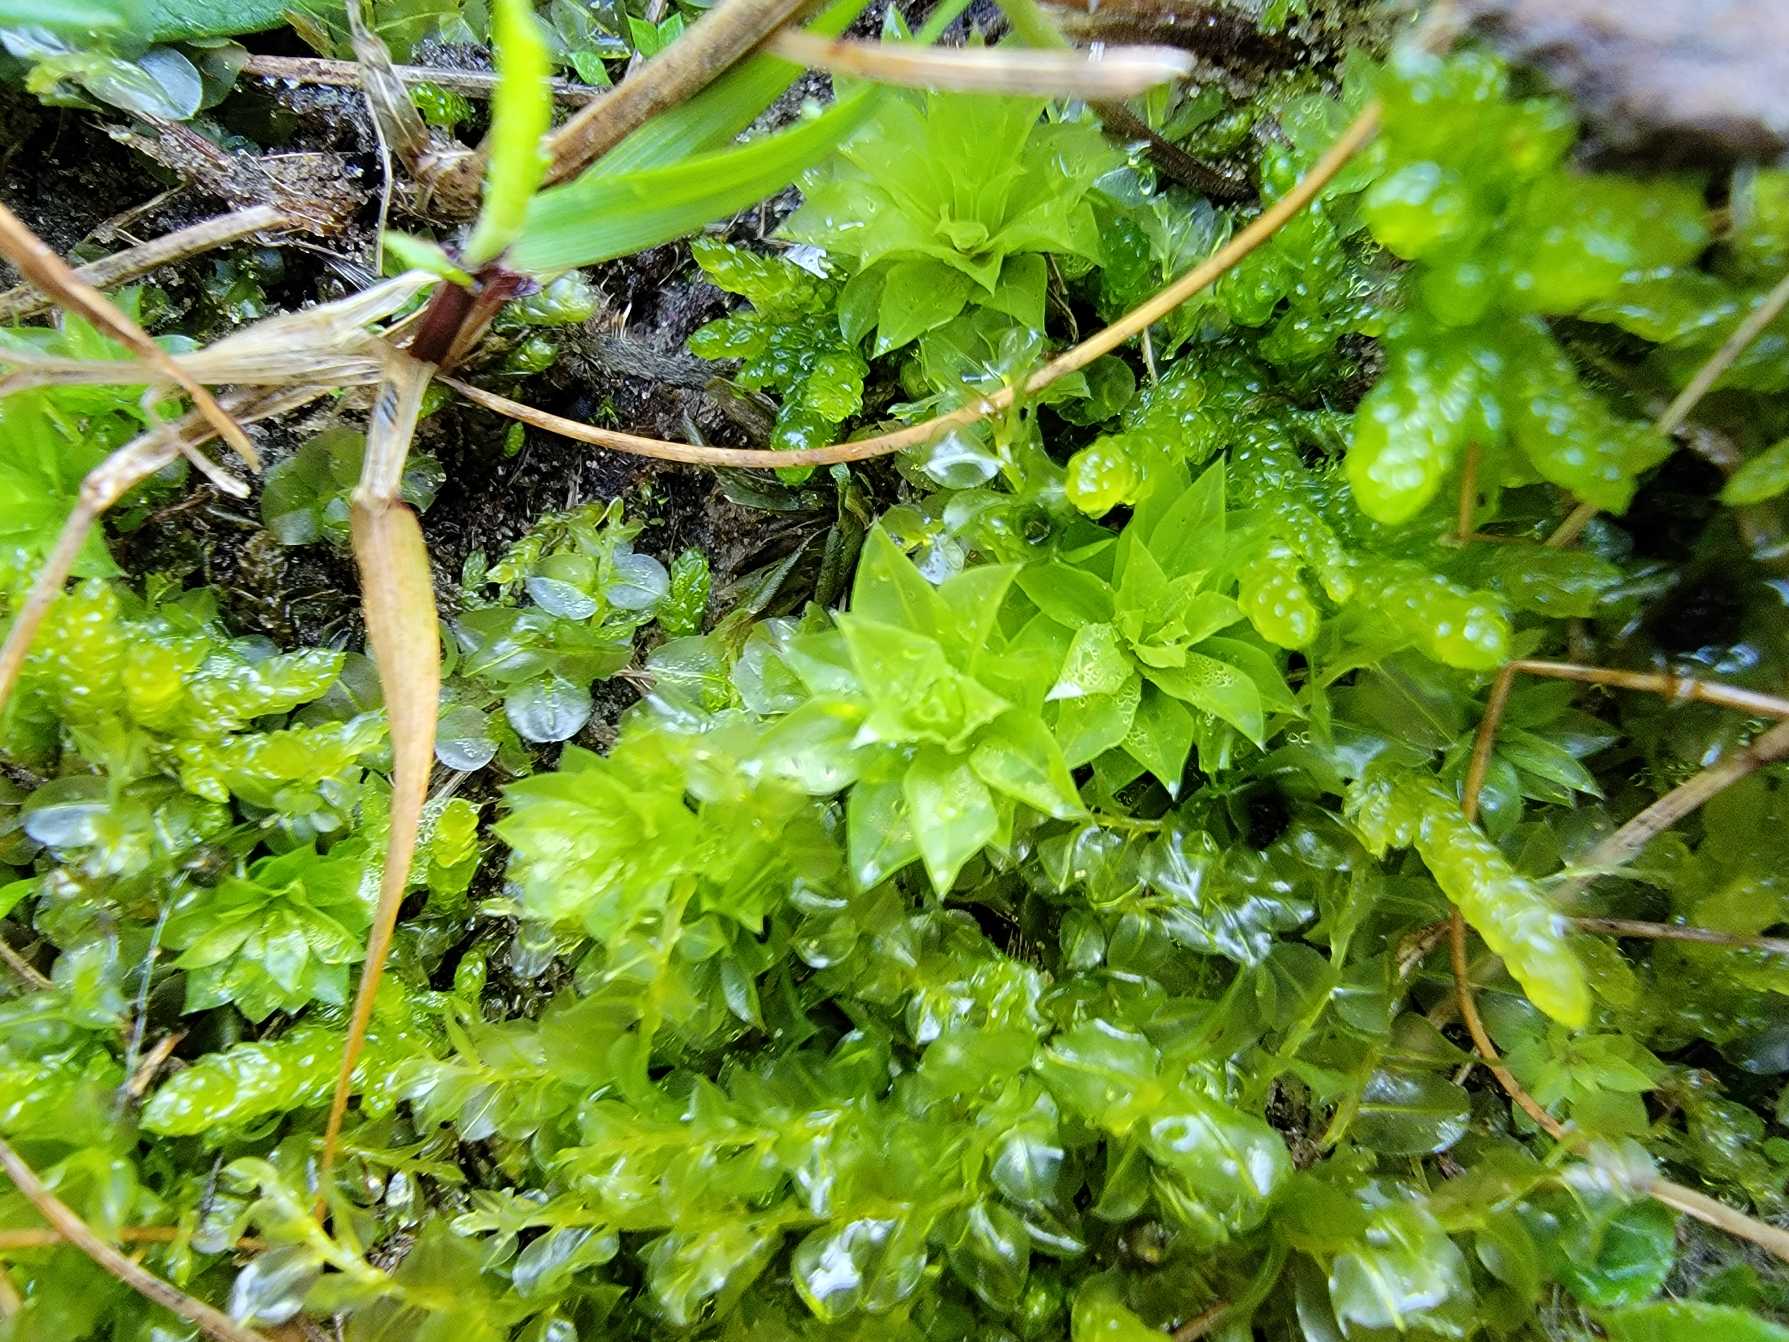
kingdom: Plantae
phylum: Bryophyta
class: Bryopsida
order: Bryales
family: Bryaceae
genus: Rhodobryum
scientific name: Rhodobryum roseum
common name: Stor rosetmos
